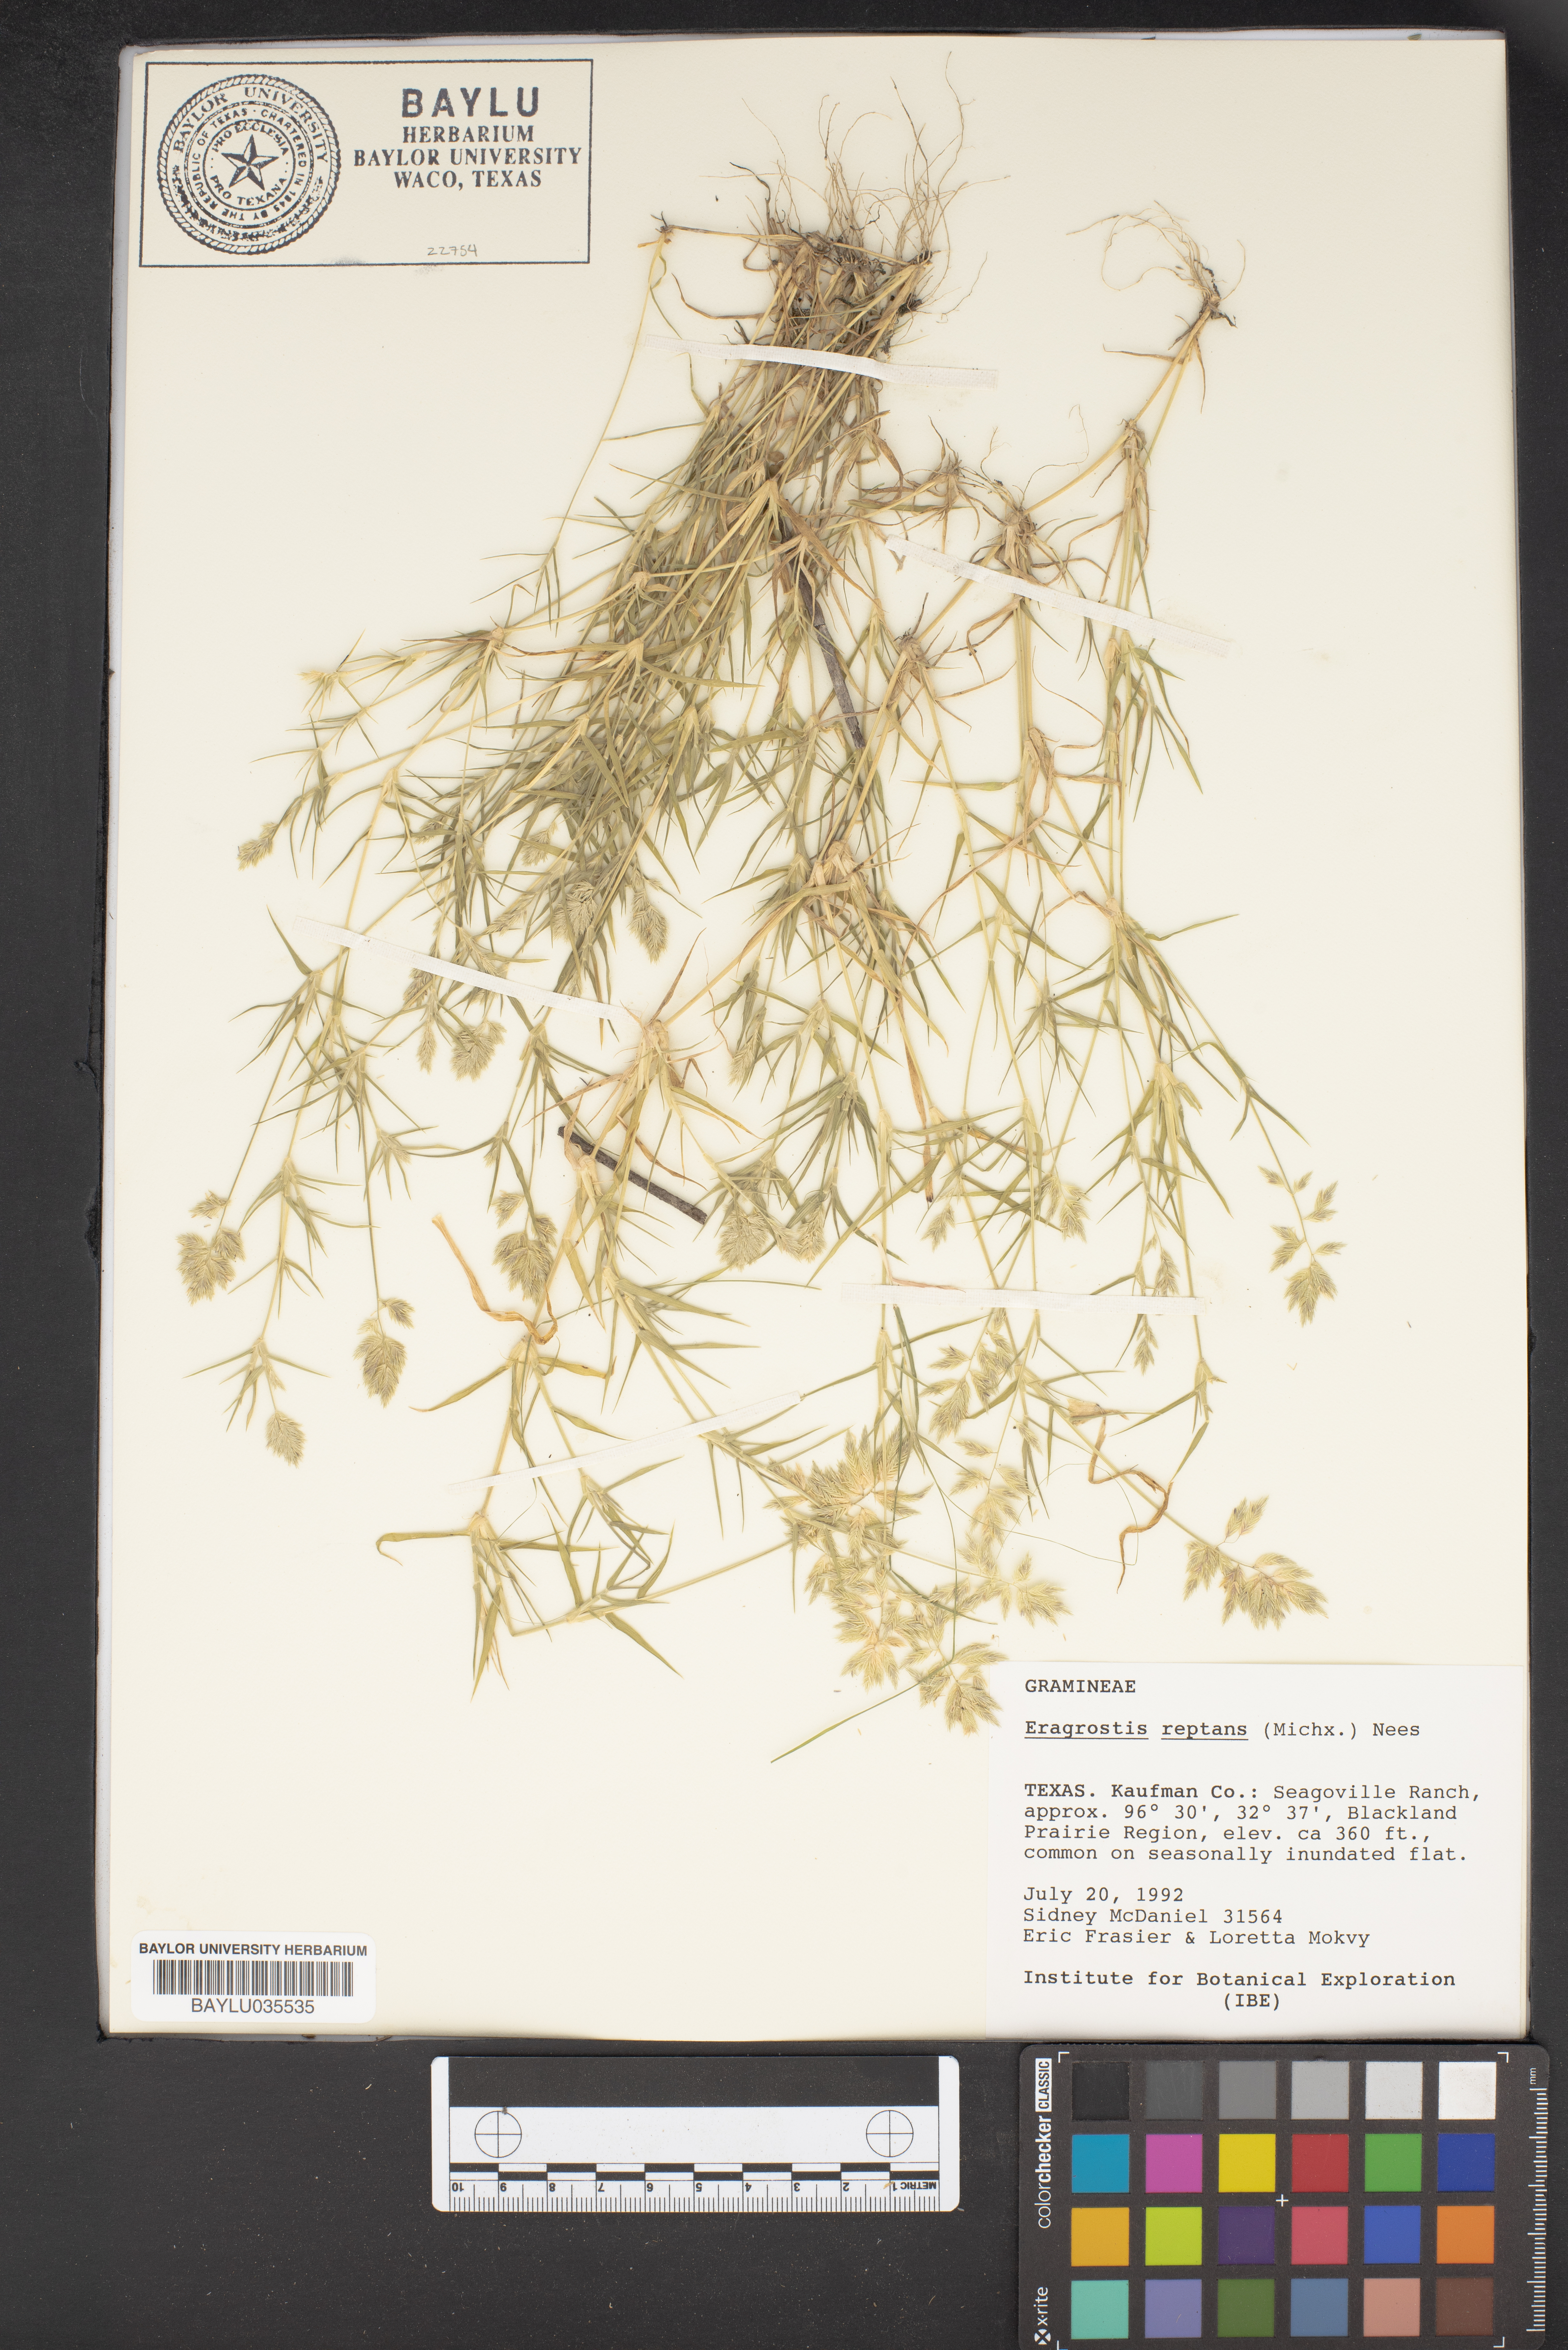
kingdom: Plantae
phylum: Tracheophyta
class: Liliopsida
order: Poales
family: Poaceae
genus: Eragrostis
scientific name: Eragrostis reptans
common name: Creeping love grass
